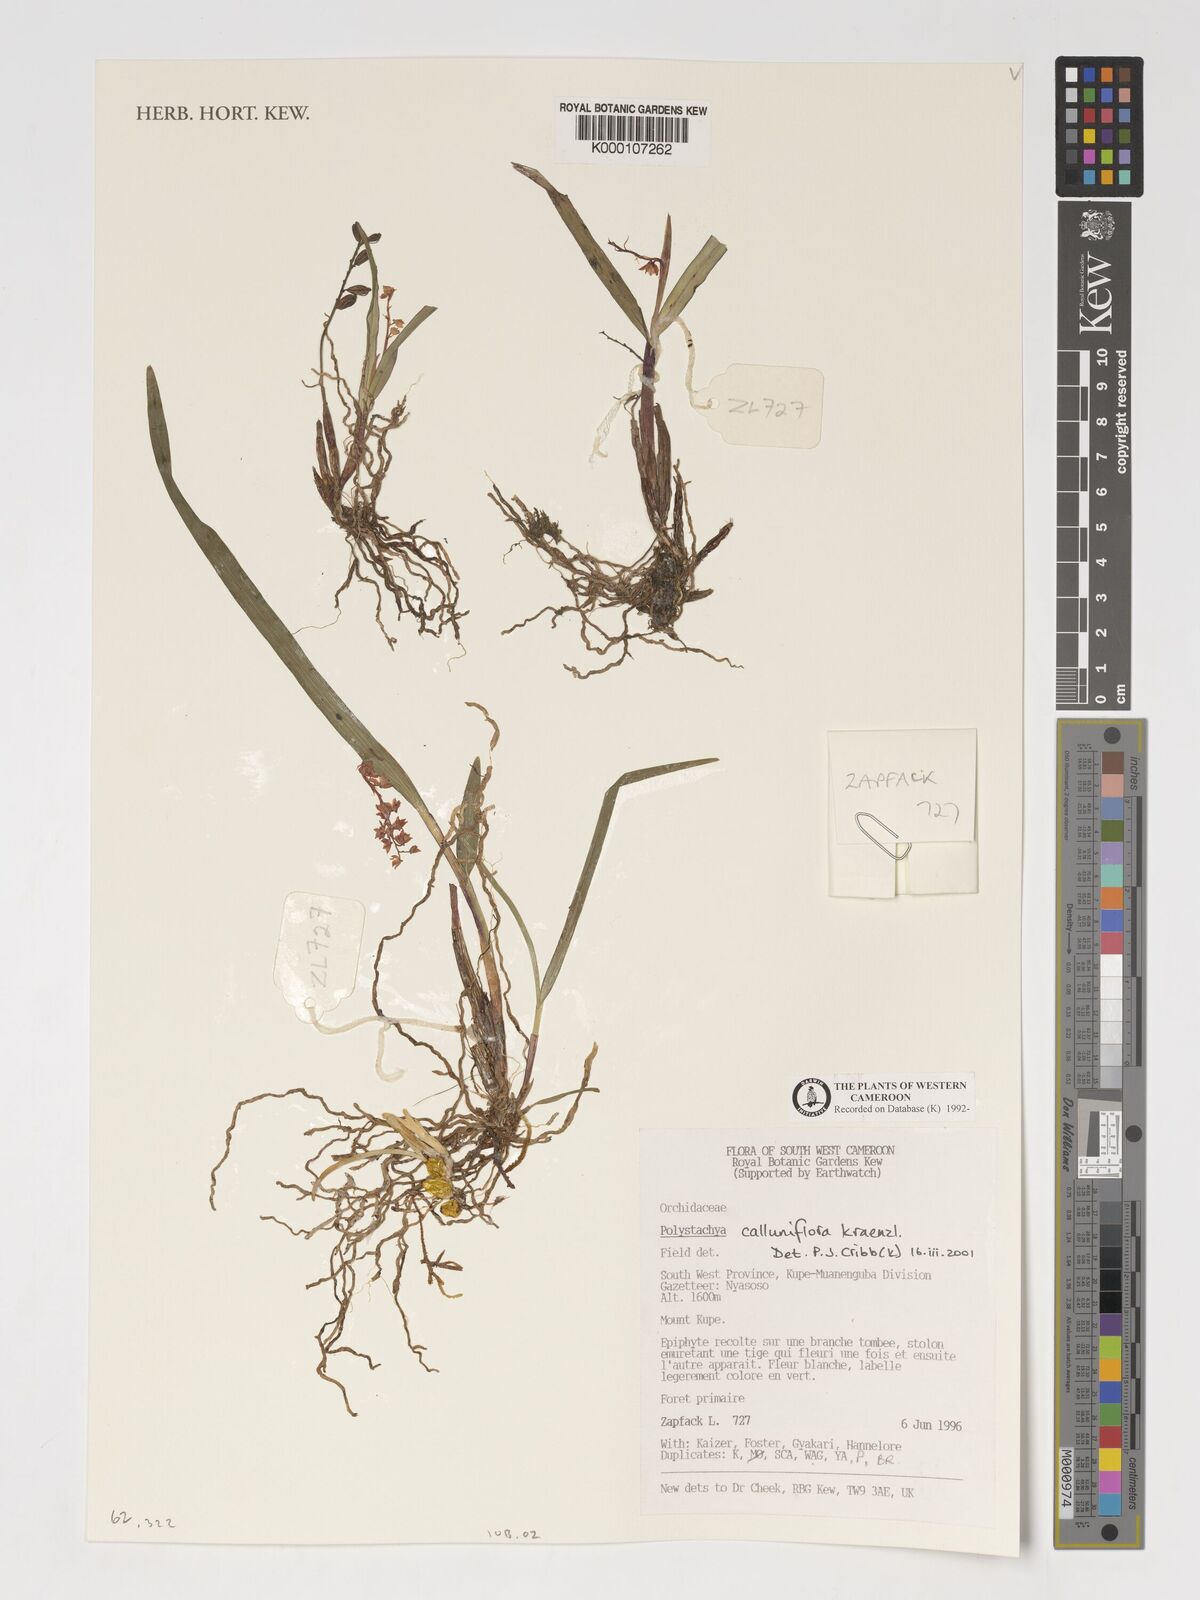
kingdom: Plantae
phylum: Tracheophyta
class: Liliopsida
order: Asparagales
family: Orchidaceae
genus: Polystachya
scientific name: Polystachya calluniflora
